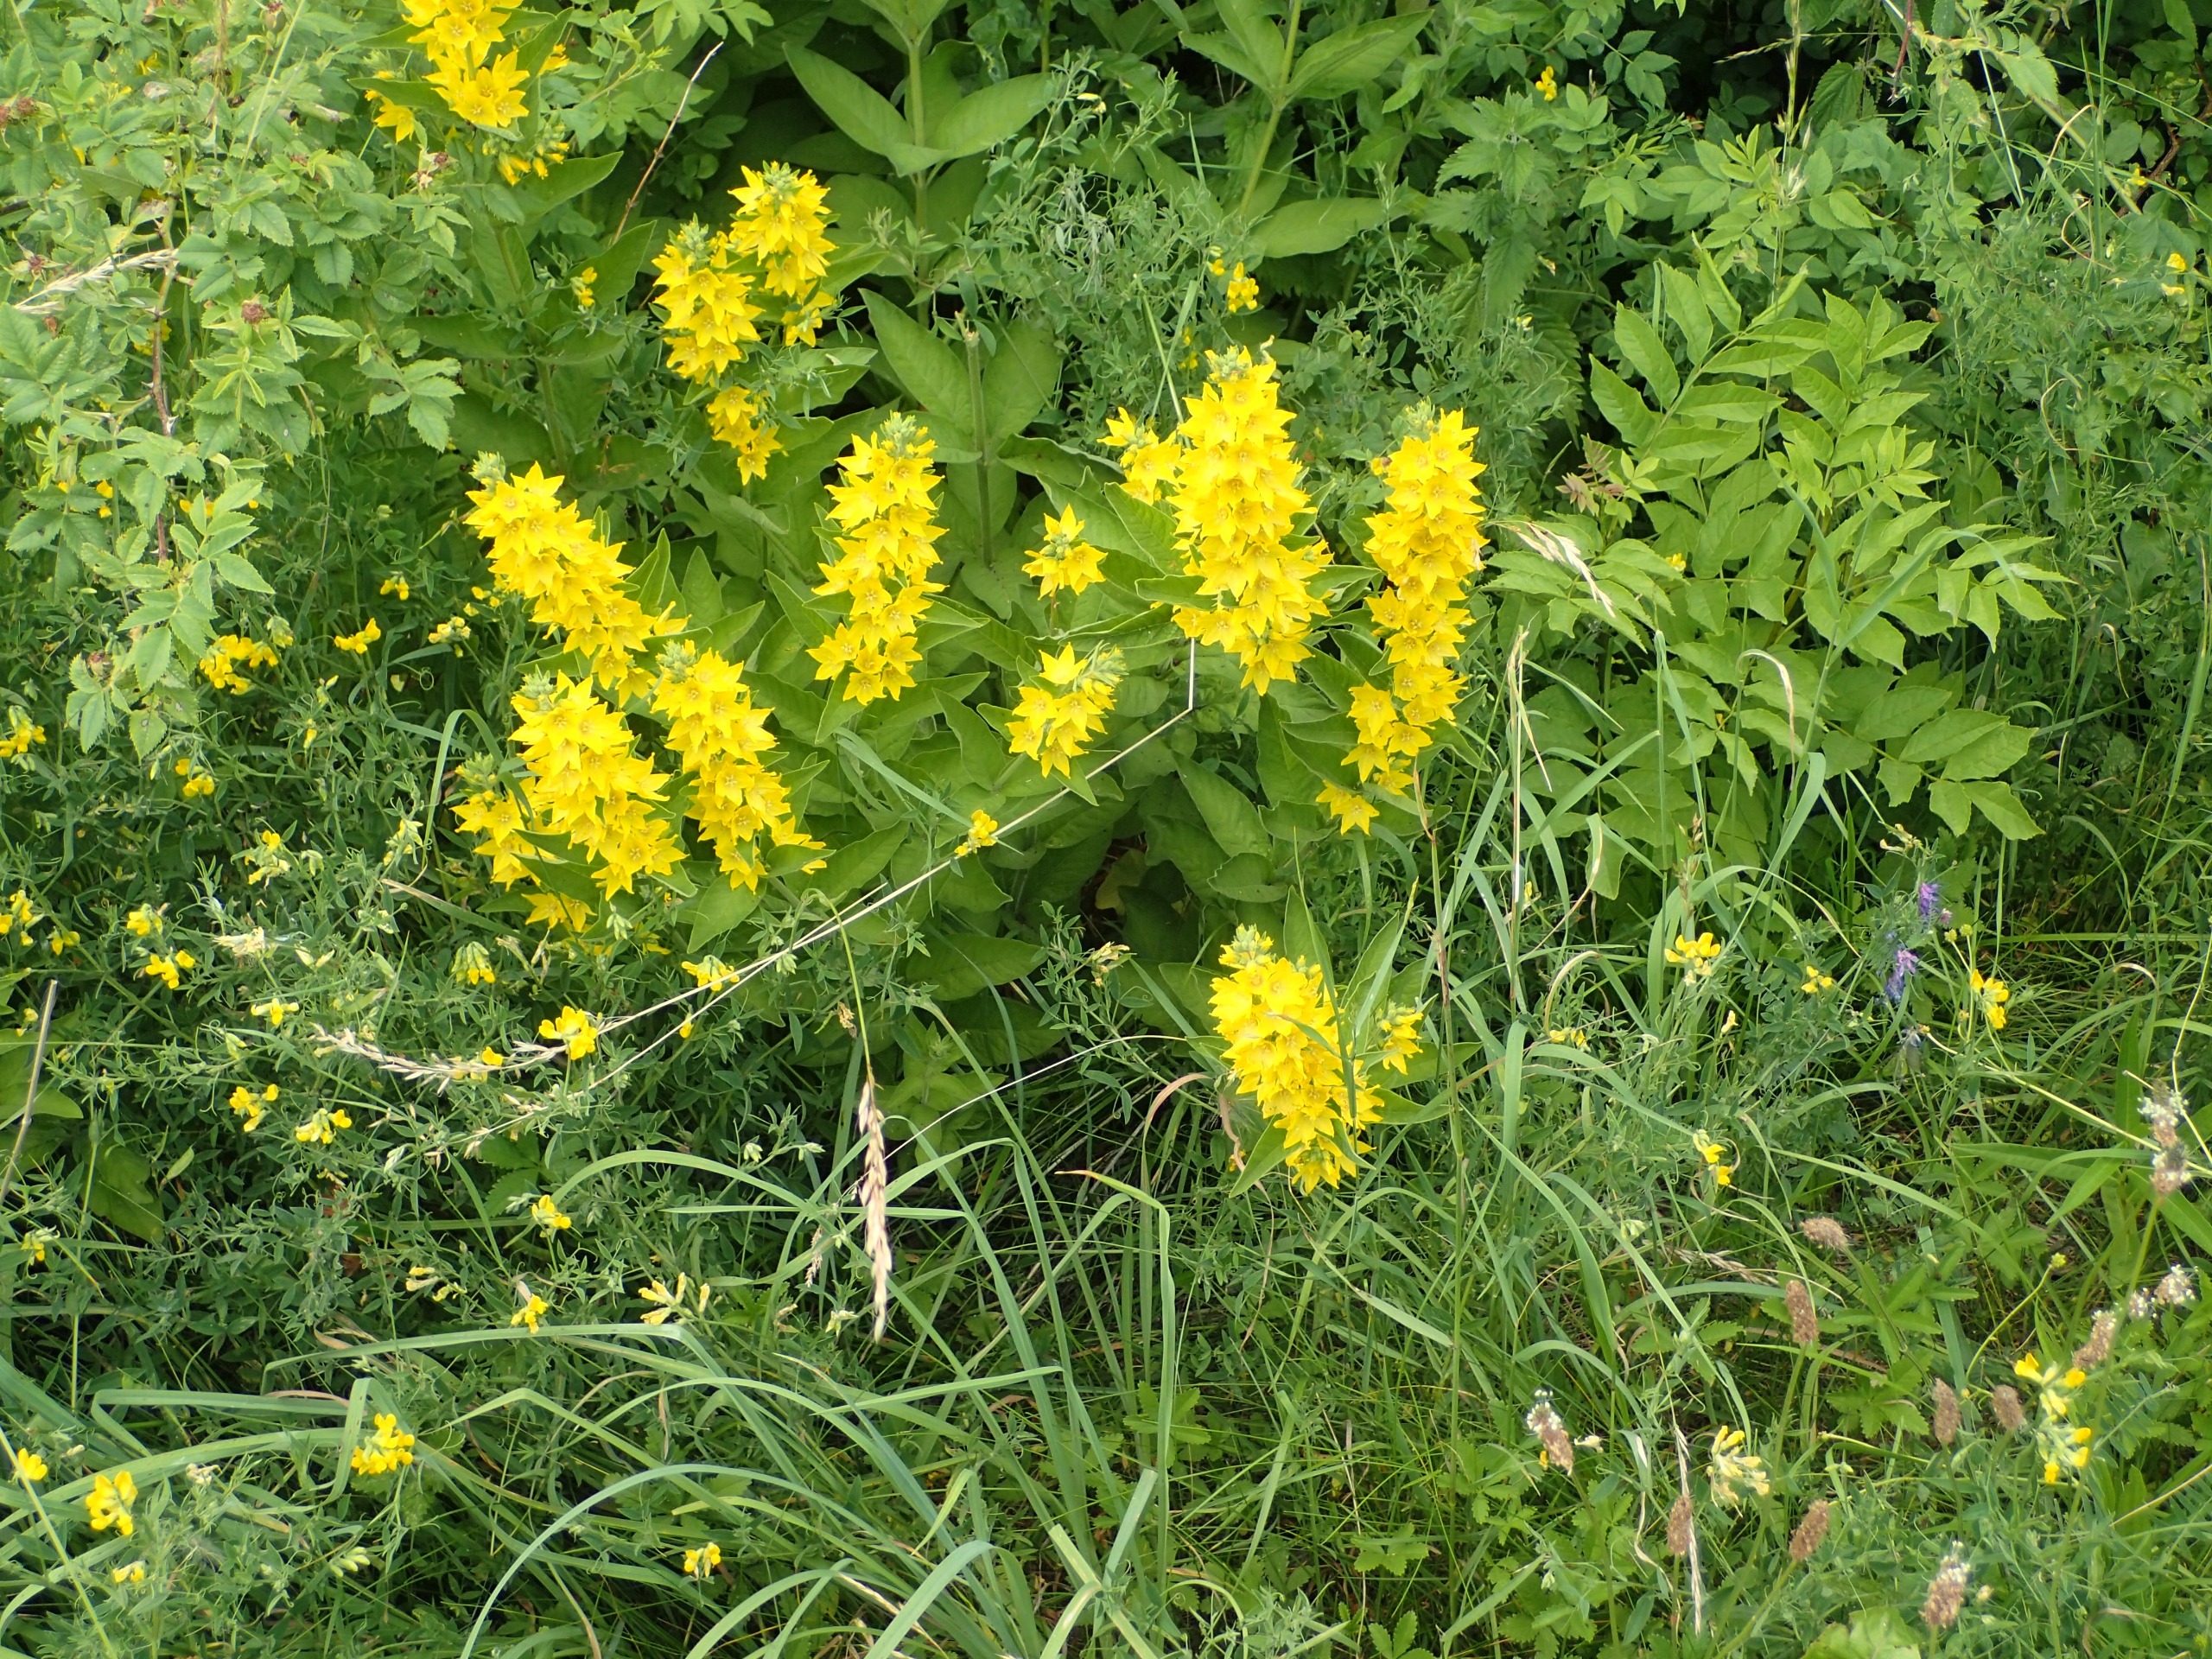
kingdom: Plantae
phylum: Tracheophyta
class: Magnoliopsida
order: Ericales
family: Primulaceae
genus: Lysimachia
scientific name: Lysimachia punctata
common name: Prikbladet fredløs
